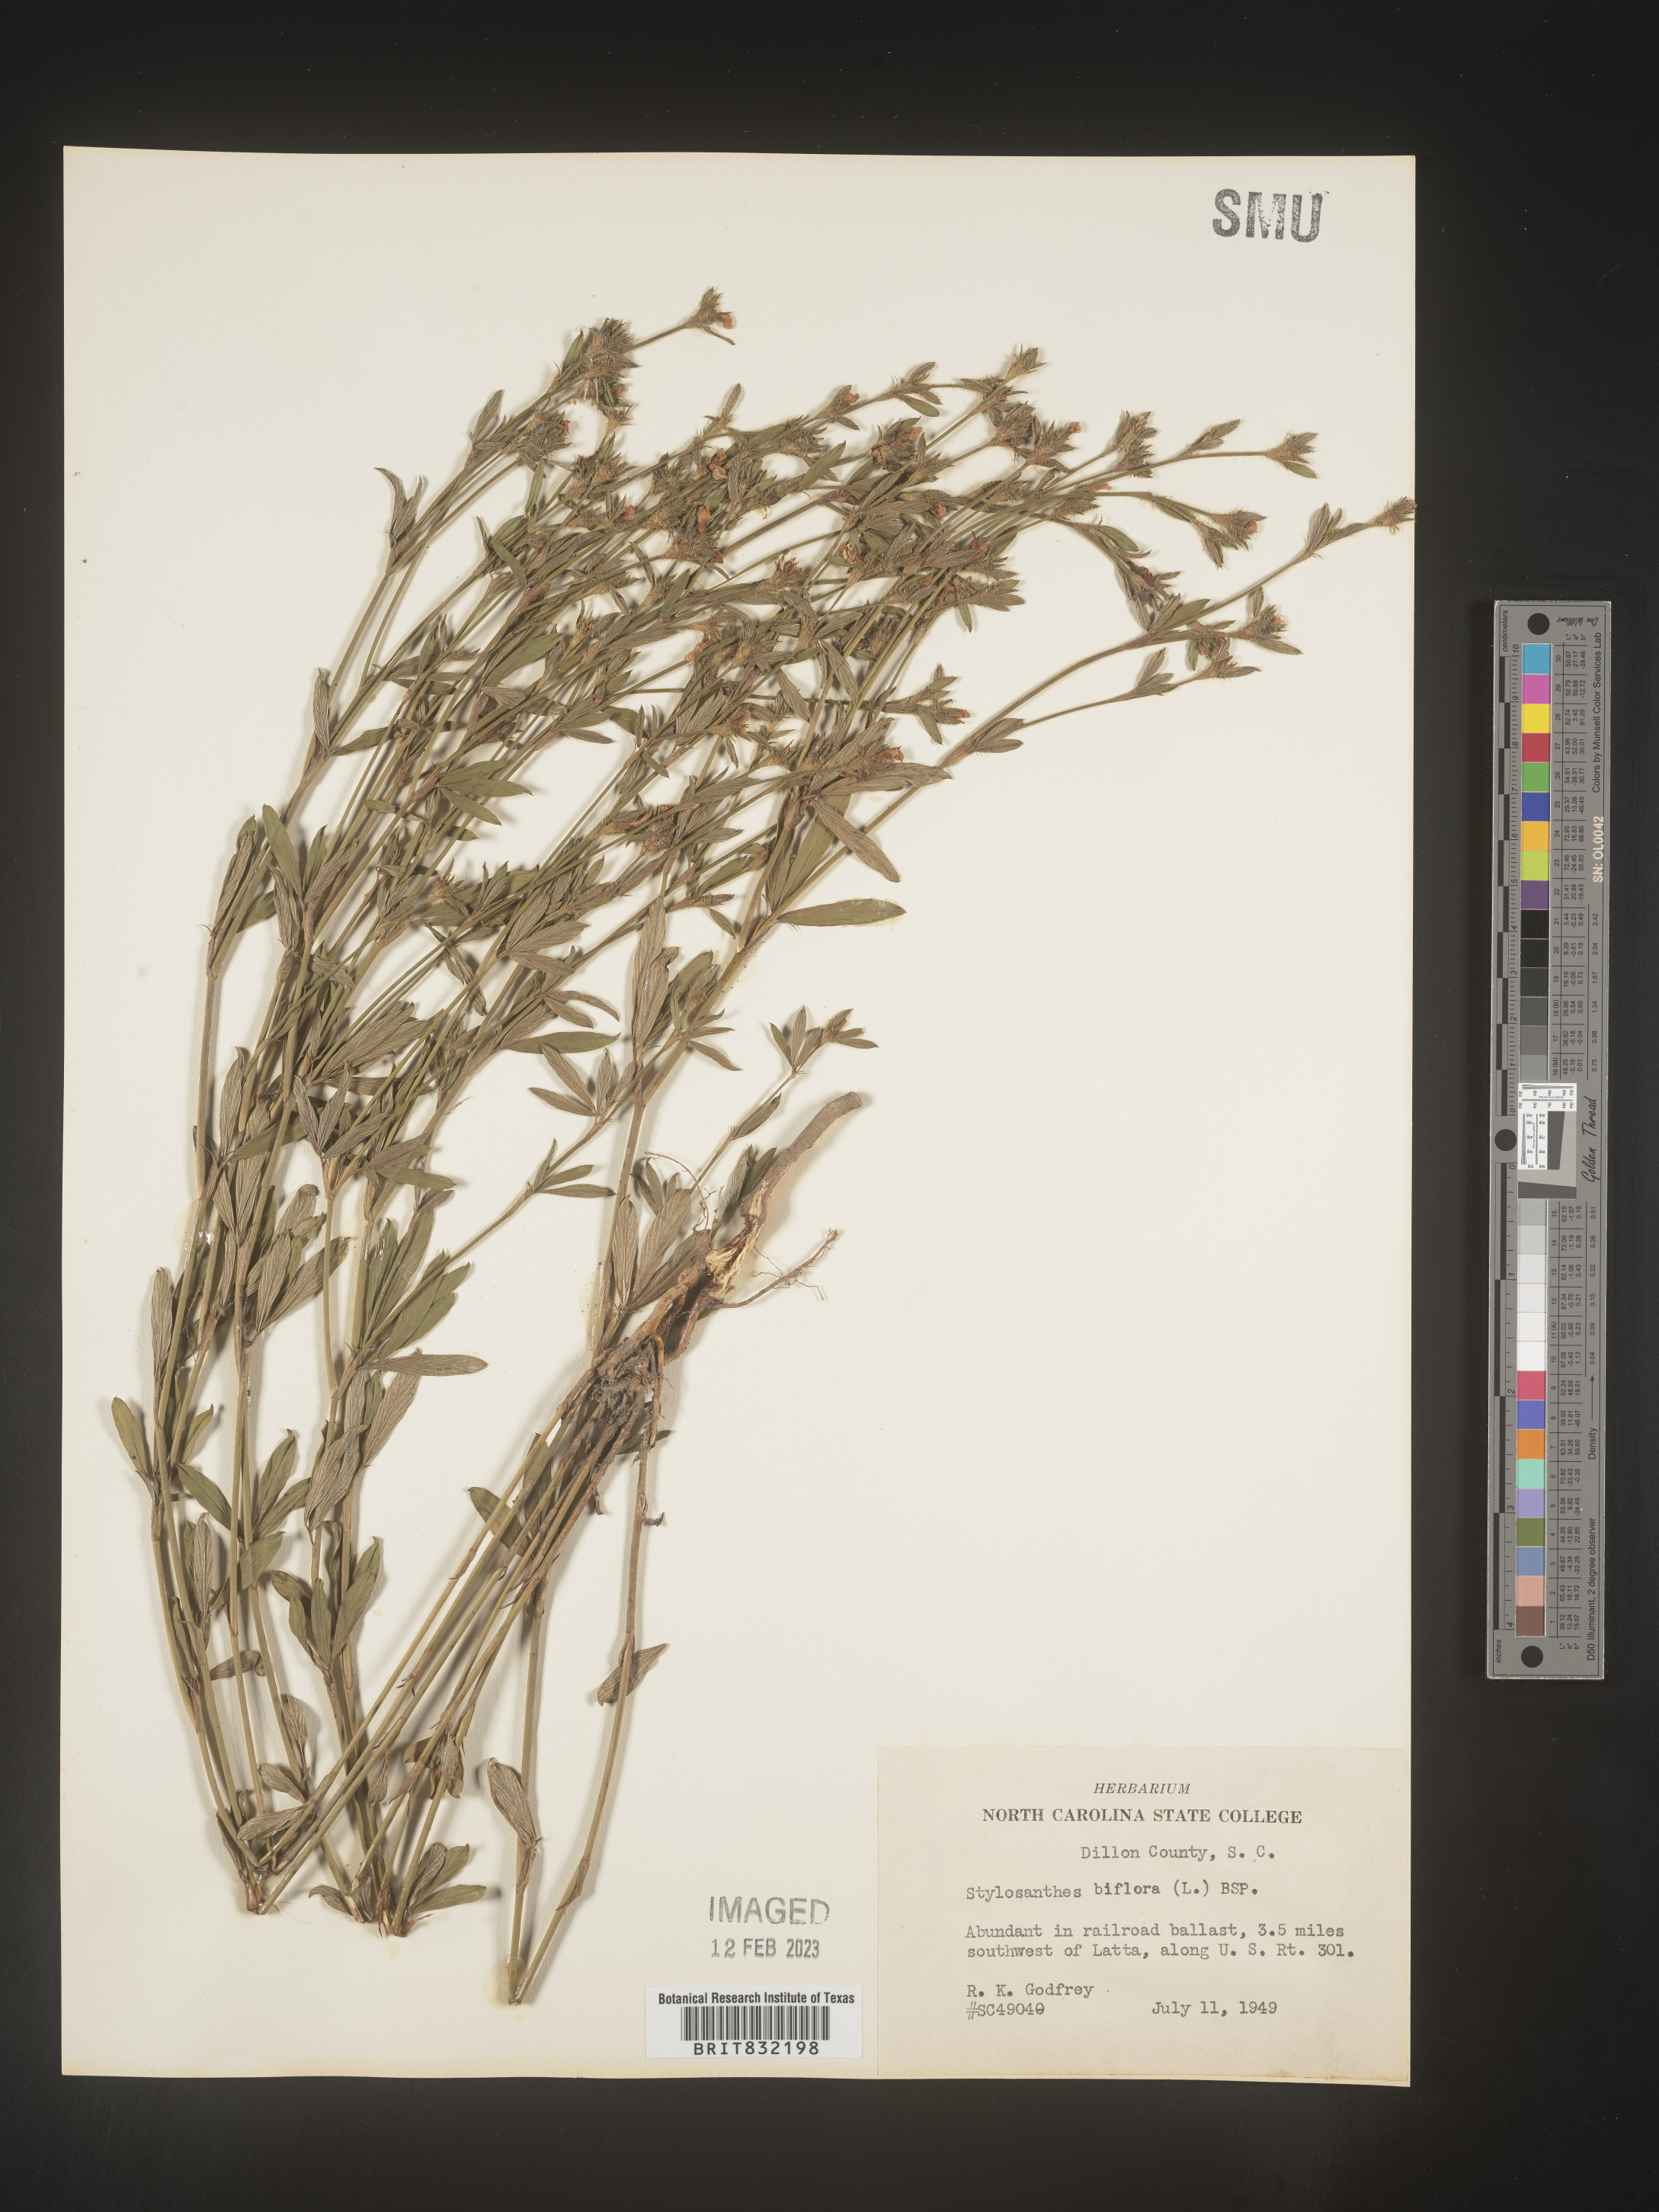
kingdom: Plantae
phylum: Tracheophyta
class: Magnoliopsida
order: Fabales
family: Fabaceae
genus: Stylosanthes
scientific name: Stylosanthes biflora
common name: Two-flower pencil-flower
